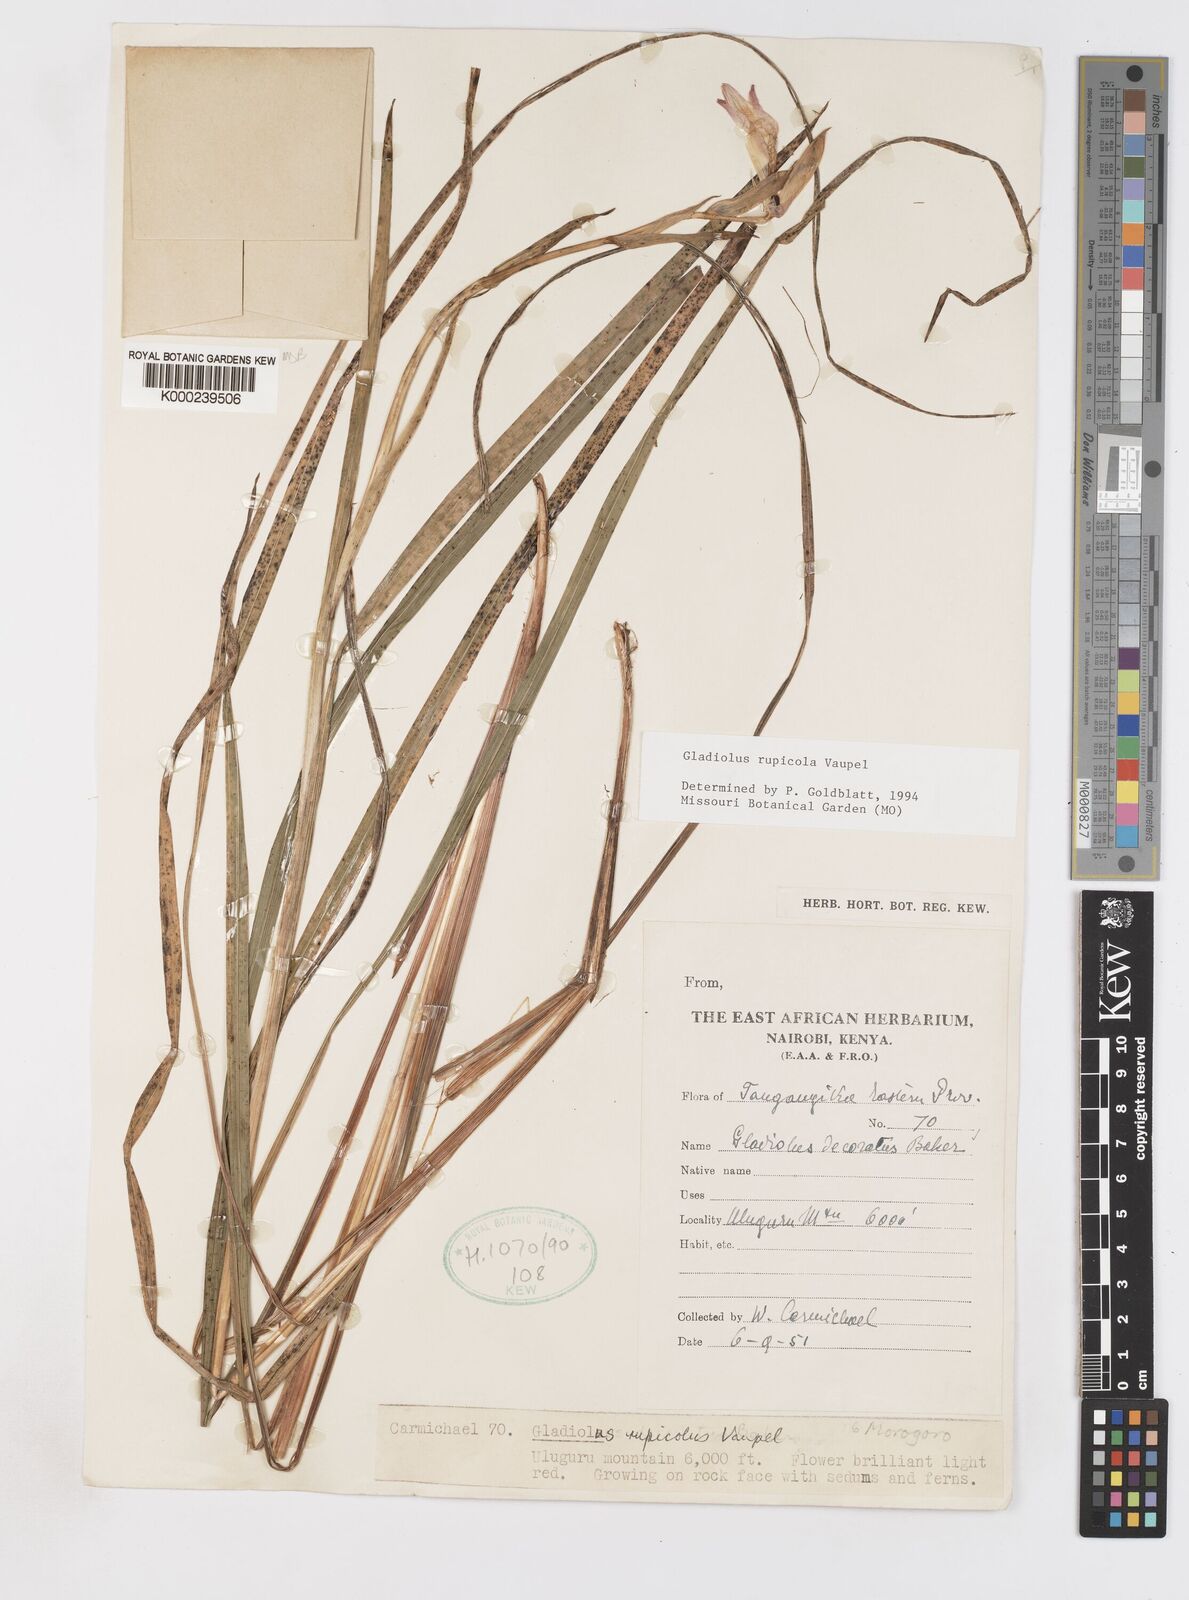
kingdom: Plantae
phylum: Tracheophyta
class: Liliopsida
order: Asparagales
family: Iridaceae
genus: Gladiolus
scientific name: Gladiolus rupicola
